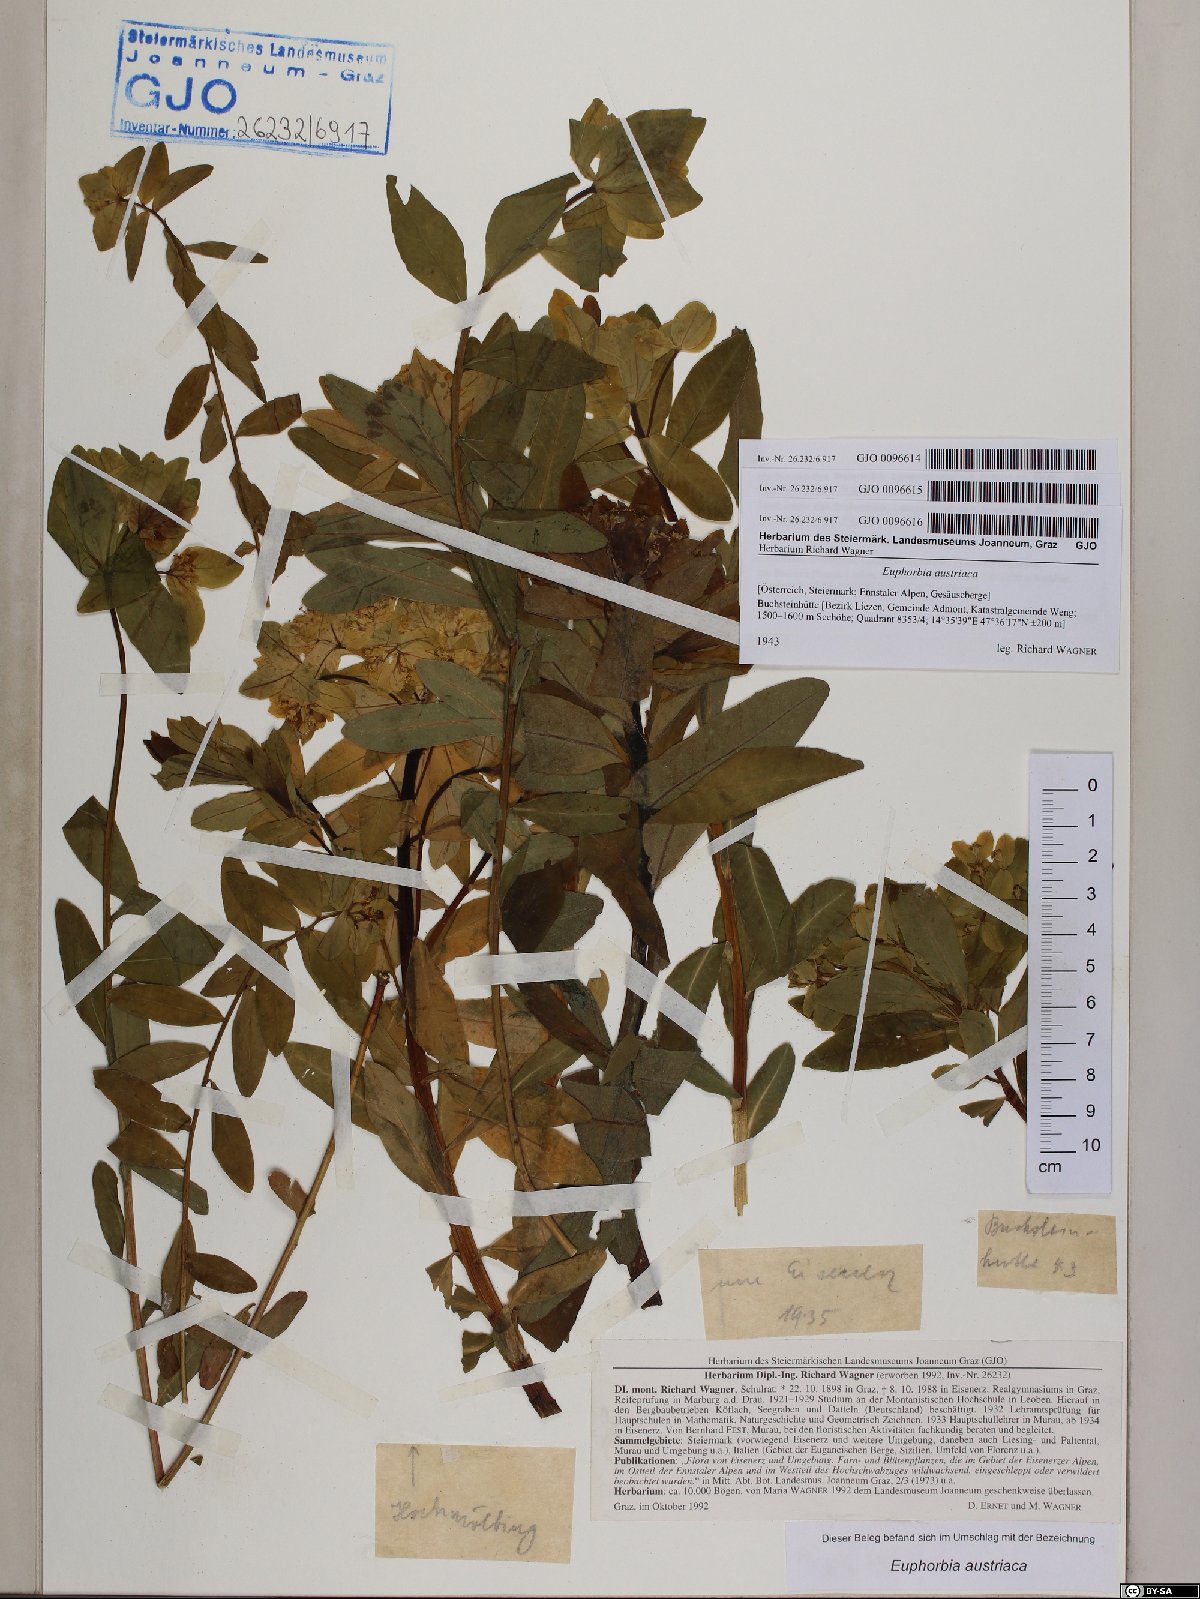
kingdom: Plantae
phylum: Tracheophyta
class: Magnoliopsida
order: Malpighiales
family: Euphorbiaceae
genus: Euphorbia
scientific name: Euphorbia austriaca
